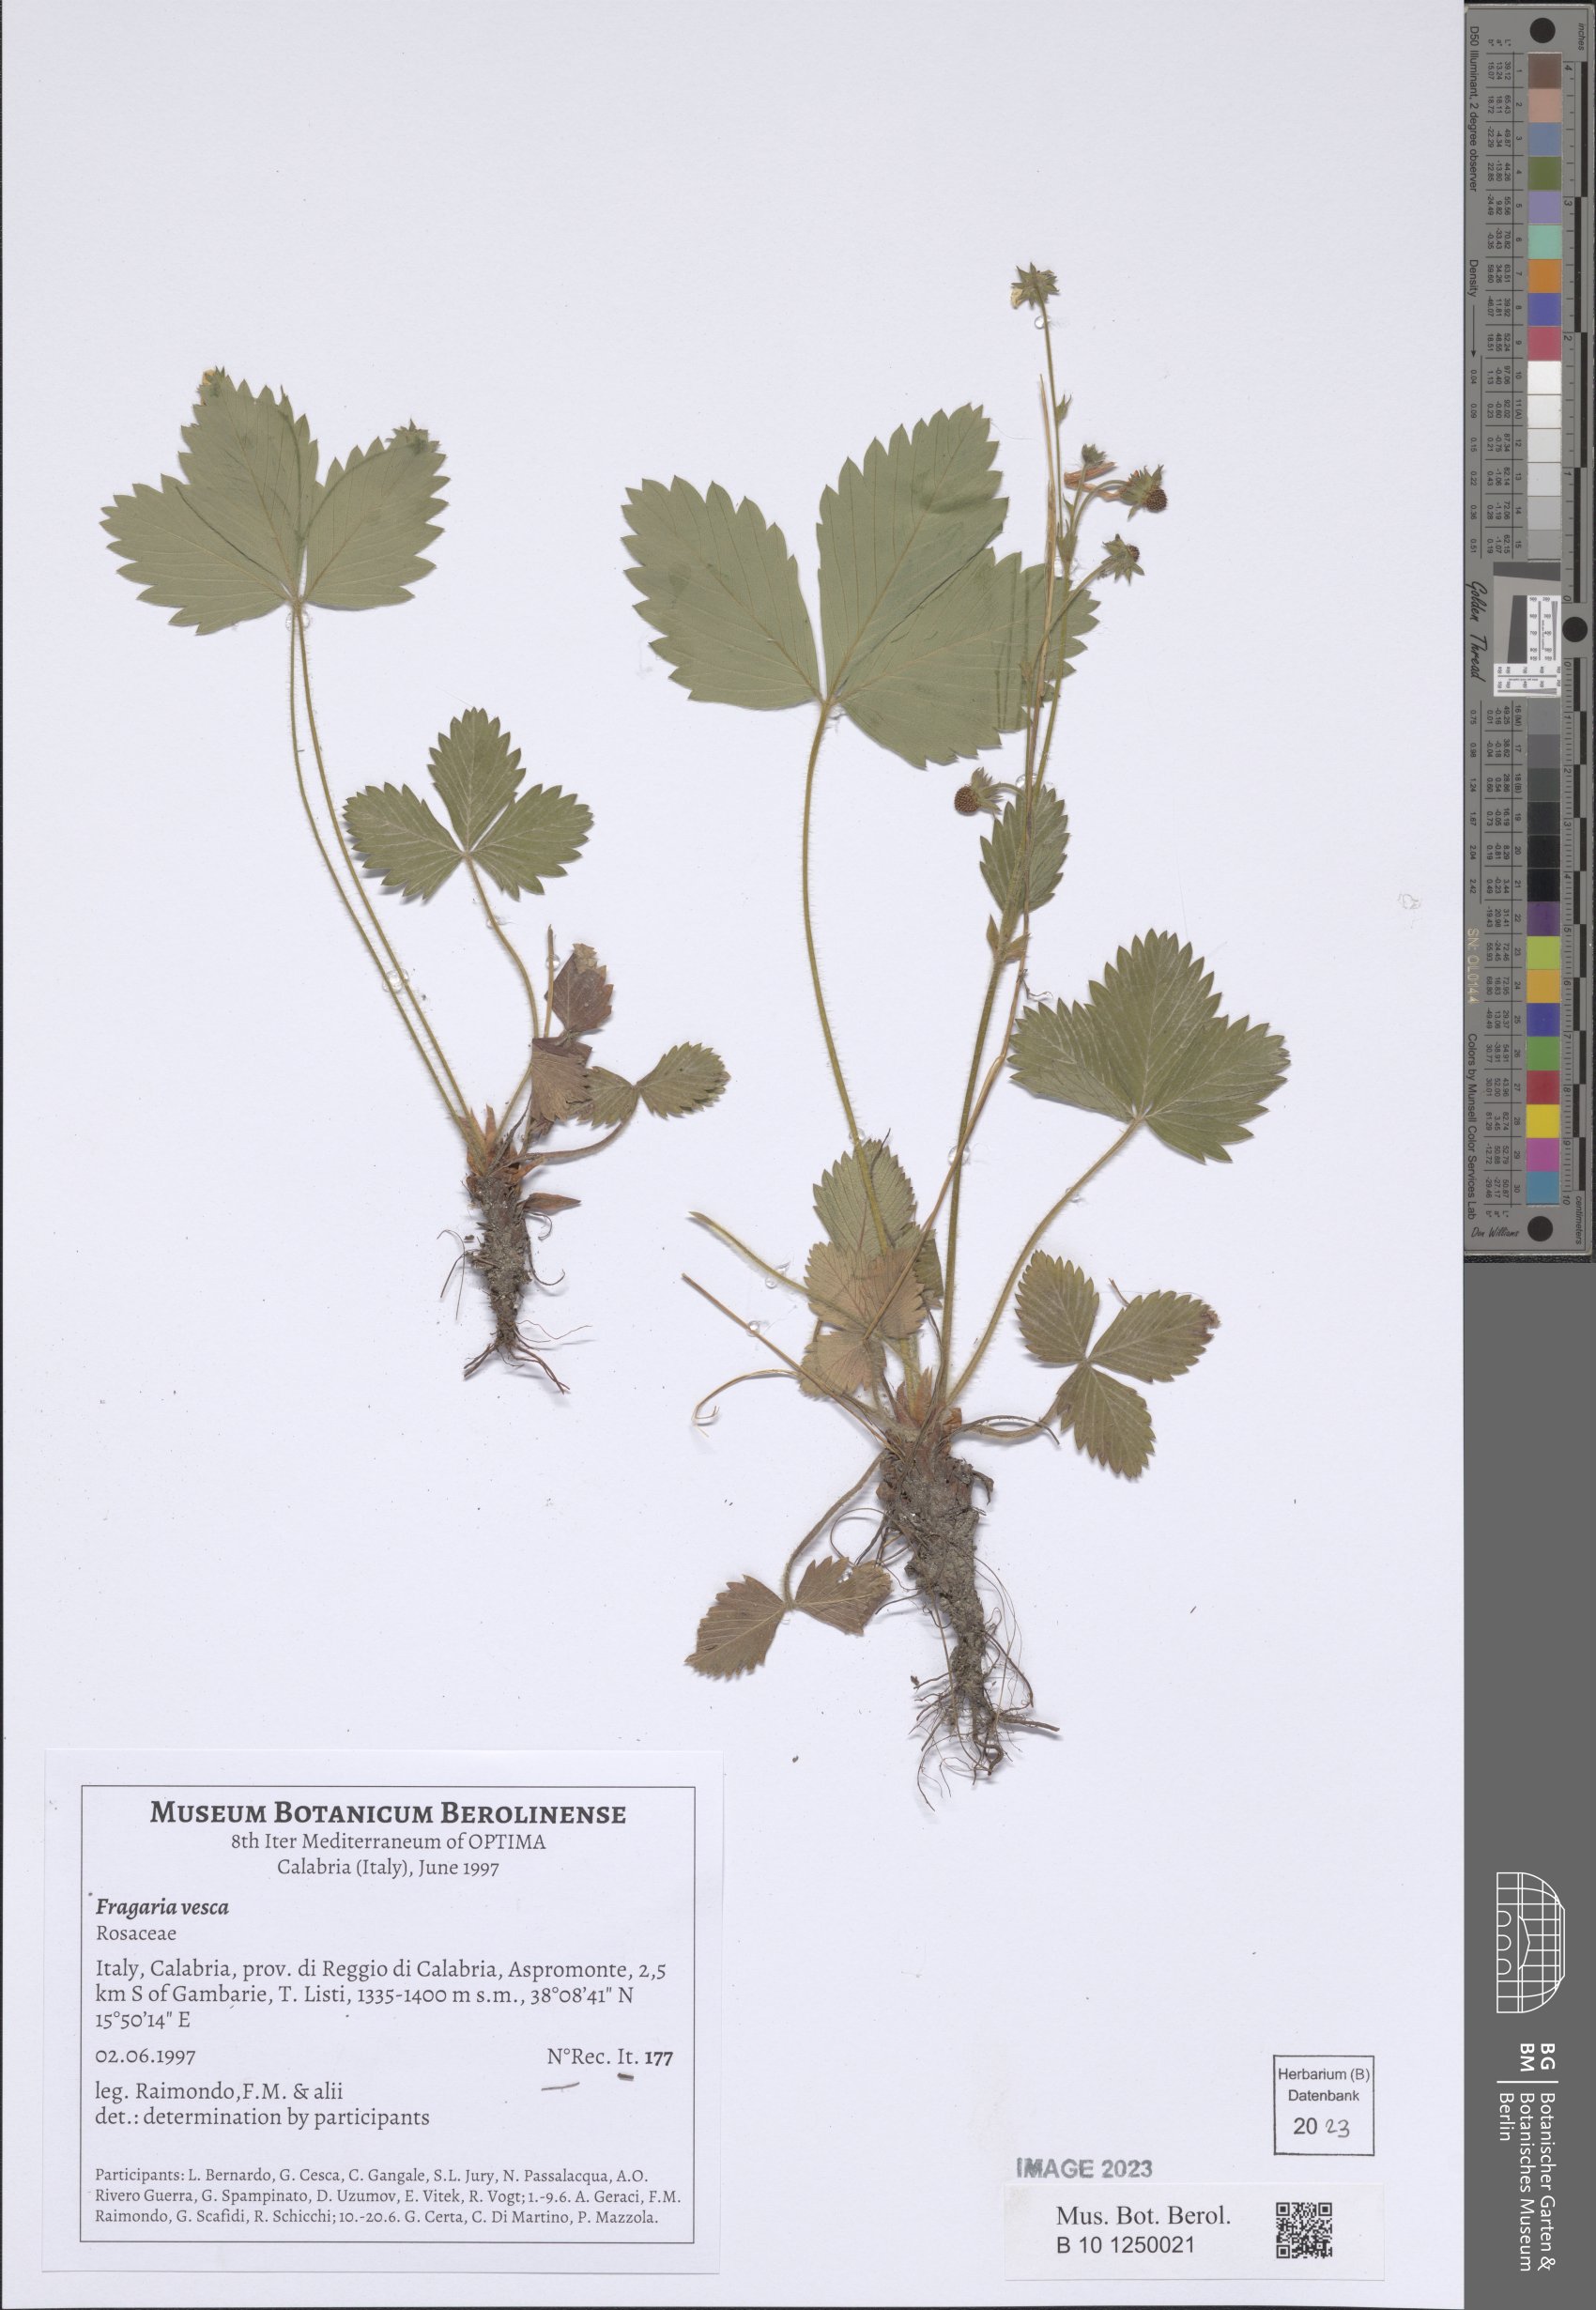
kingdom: Plantae
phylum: Tracheophyta
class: Magnoliopsida
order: Rosales
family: Rosaceae
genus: Fragaria
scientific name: Fragaria vesca
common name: Wild strawberry
